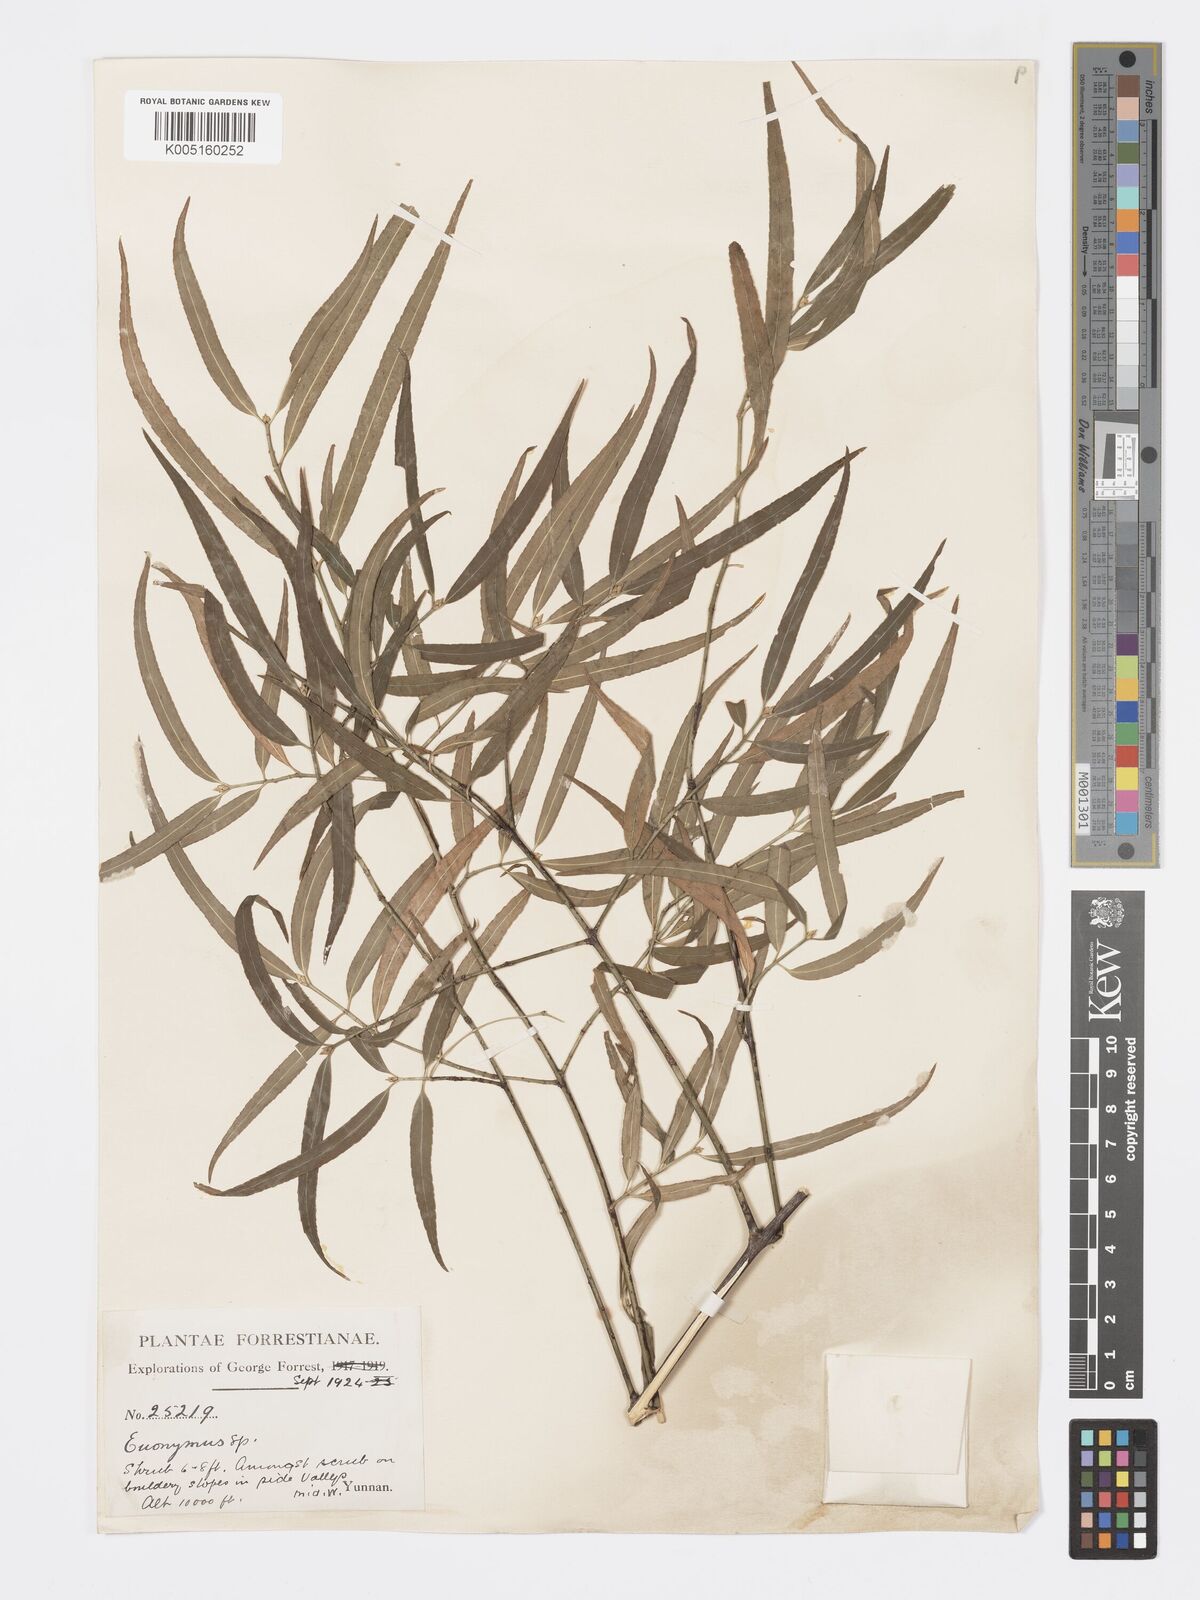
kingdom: Plantae
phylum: Tracheophyta
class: Magnoliopsida
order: Celastrales
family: Celastraceae
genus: Euonymus
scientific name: Euonymus cornutus
